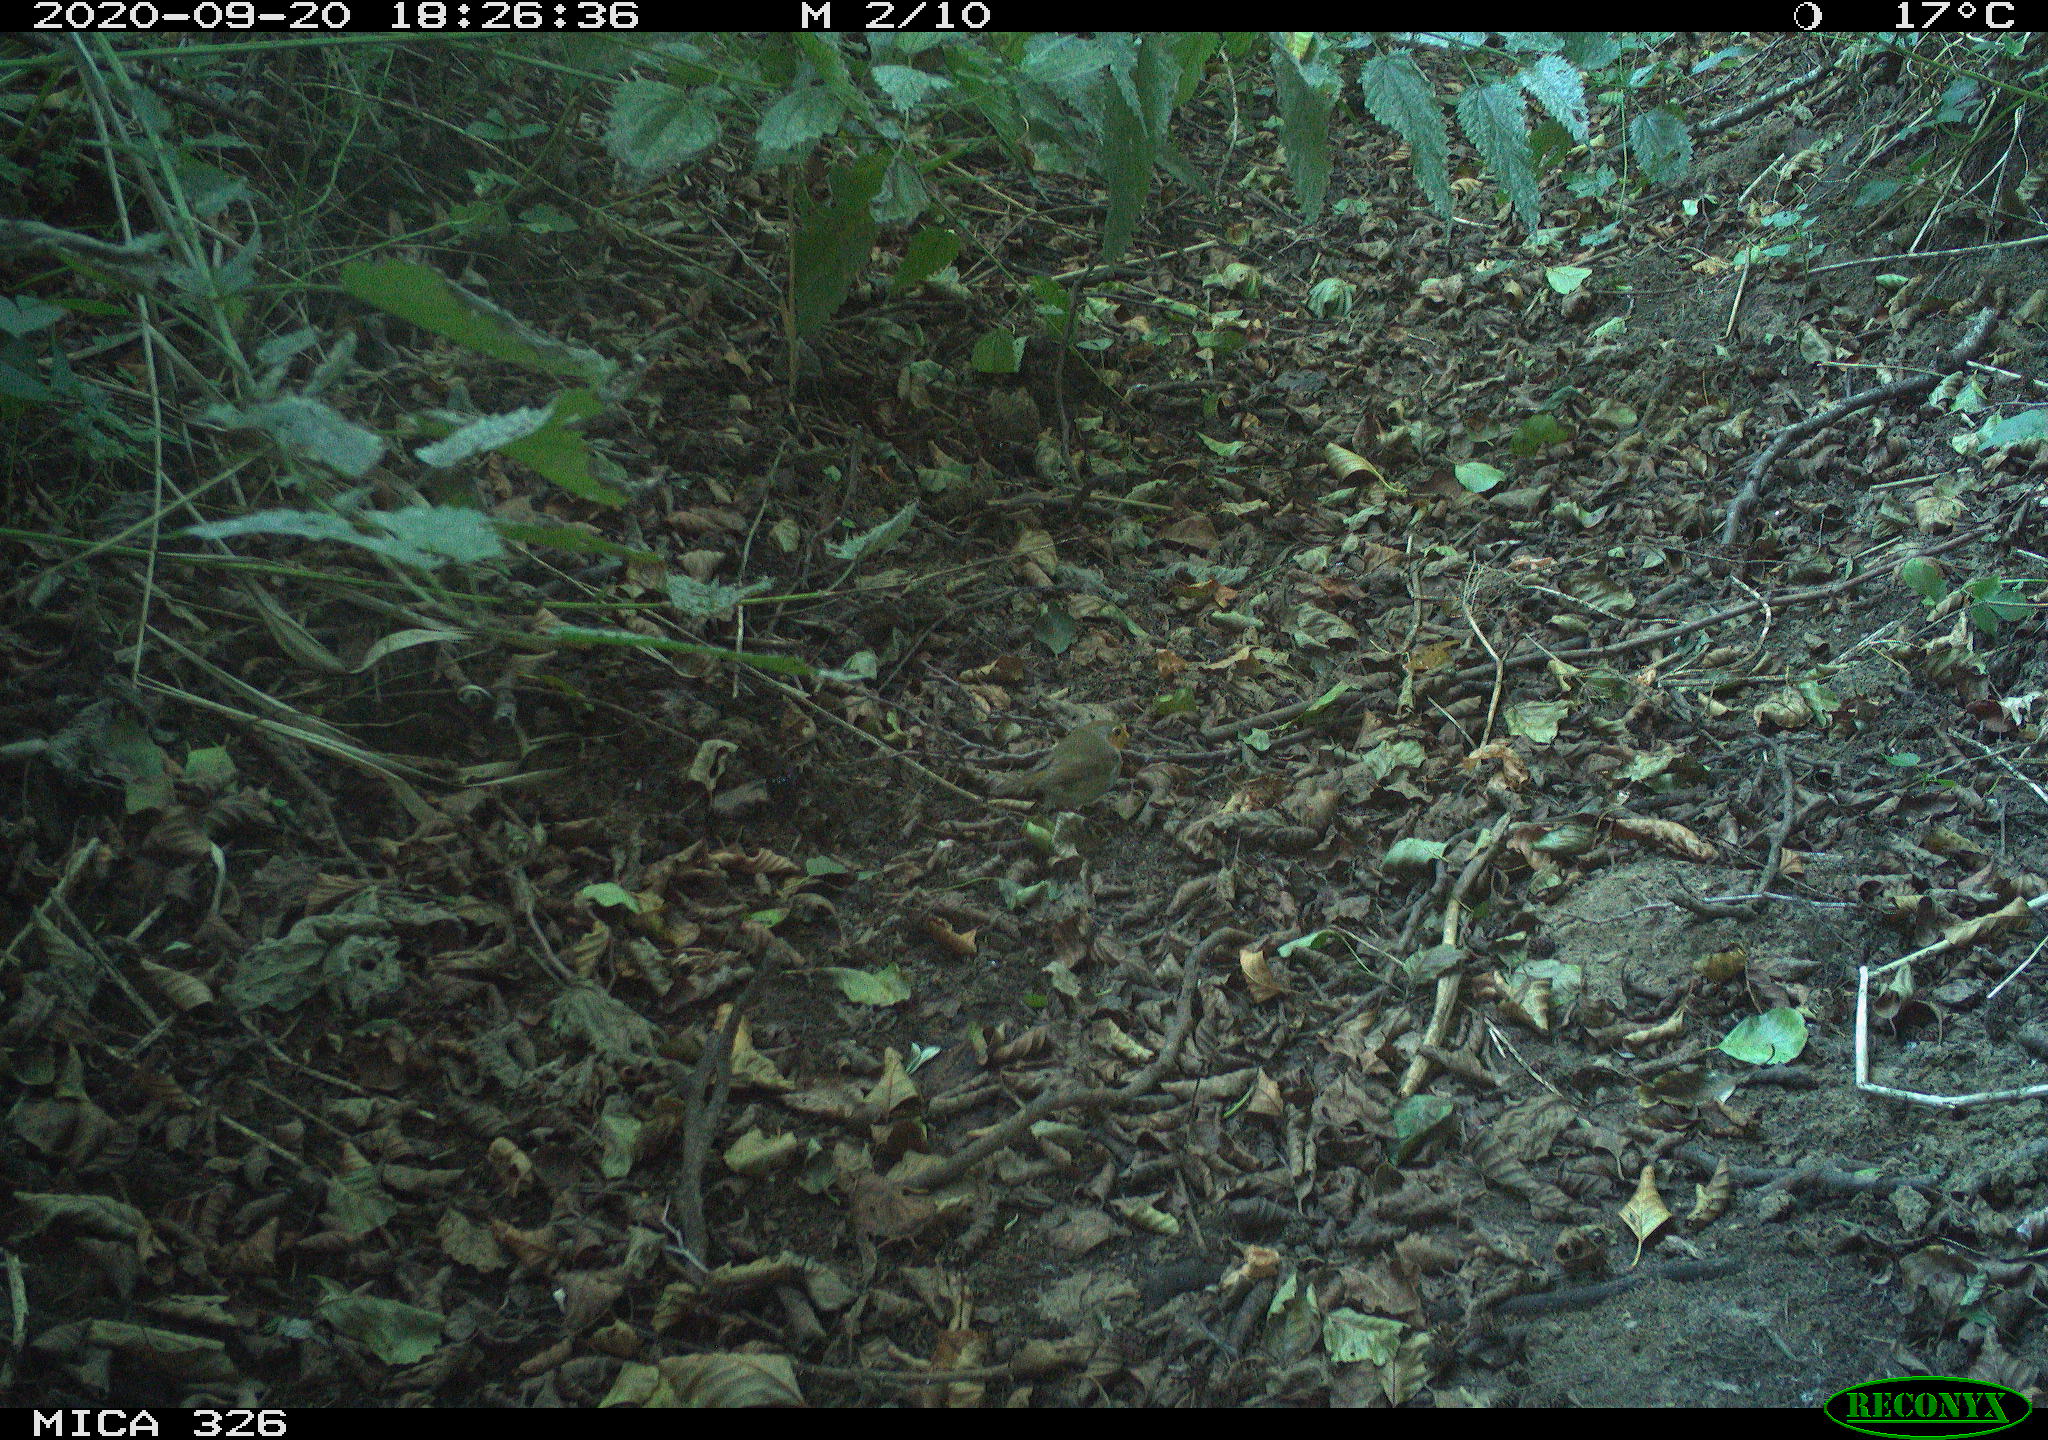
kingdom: Animalia
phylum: Chordata
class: Aves
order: Passeriformes
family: Muscicapidae
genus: Erithacus
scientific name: Erithacus rubecula
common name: European robin
